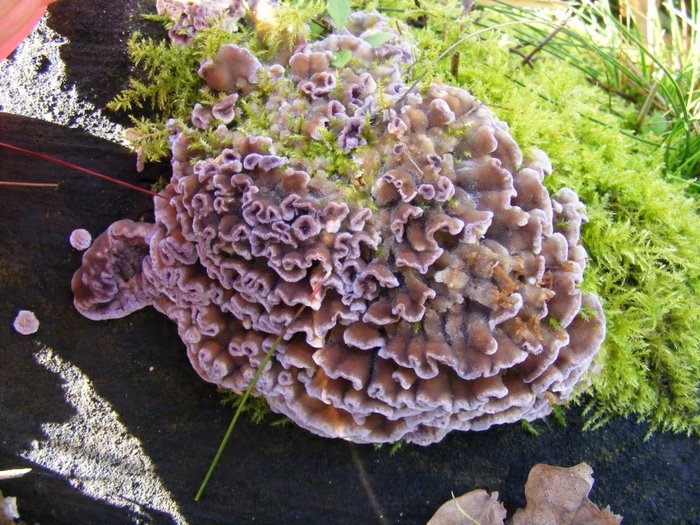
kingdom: Fungi
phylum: Basidiomycota
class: Agaricomycetes
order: Agaricales
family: Cyphellaceae
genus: Chondrostereum
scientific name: Chondrostereum purpureum
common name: purpurlædersvamp
